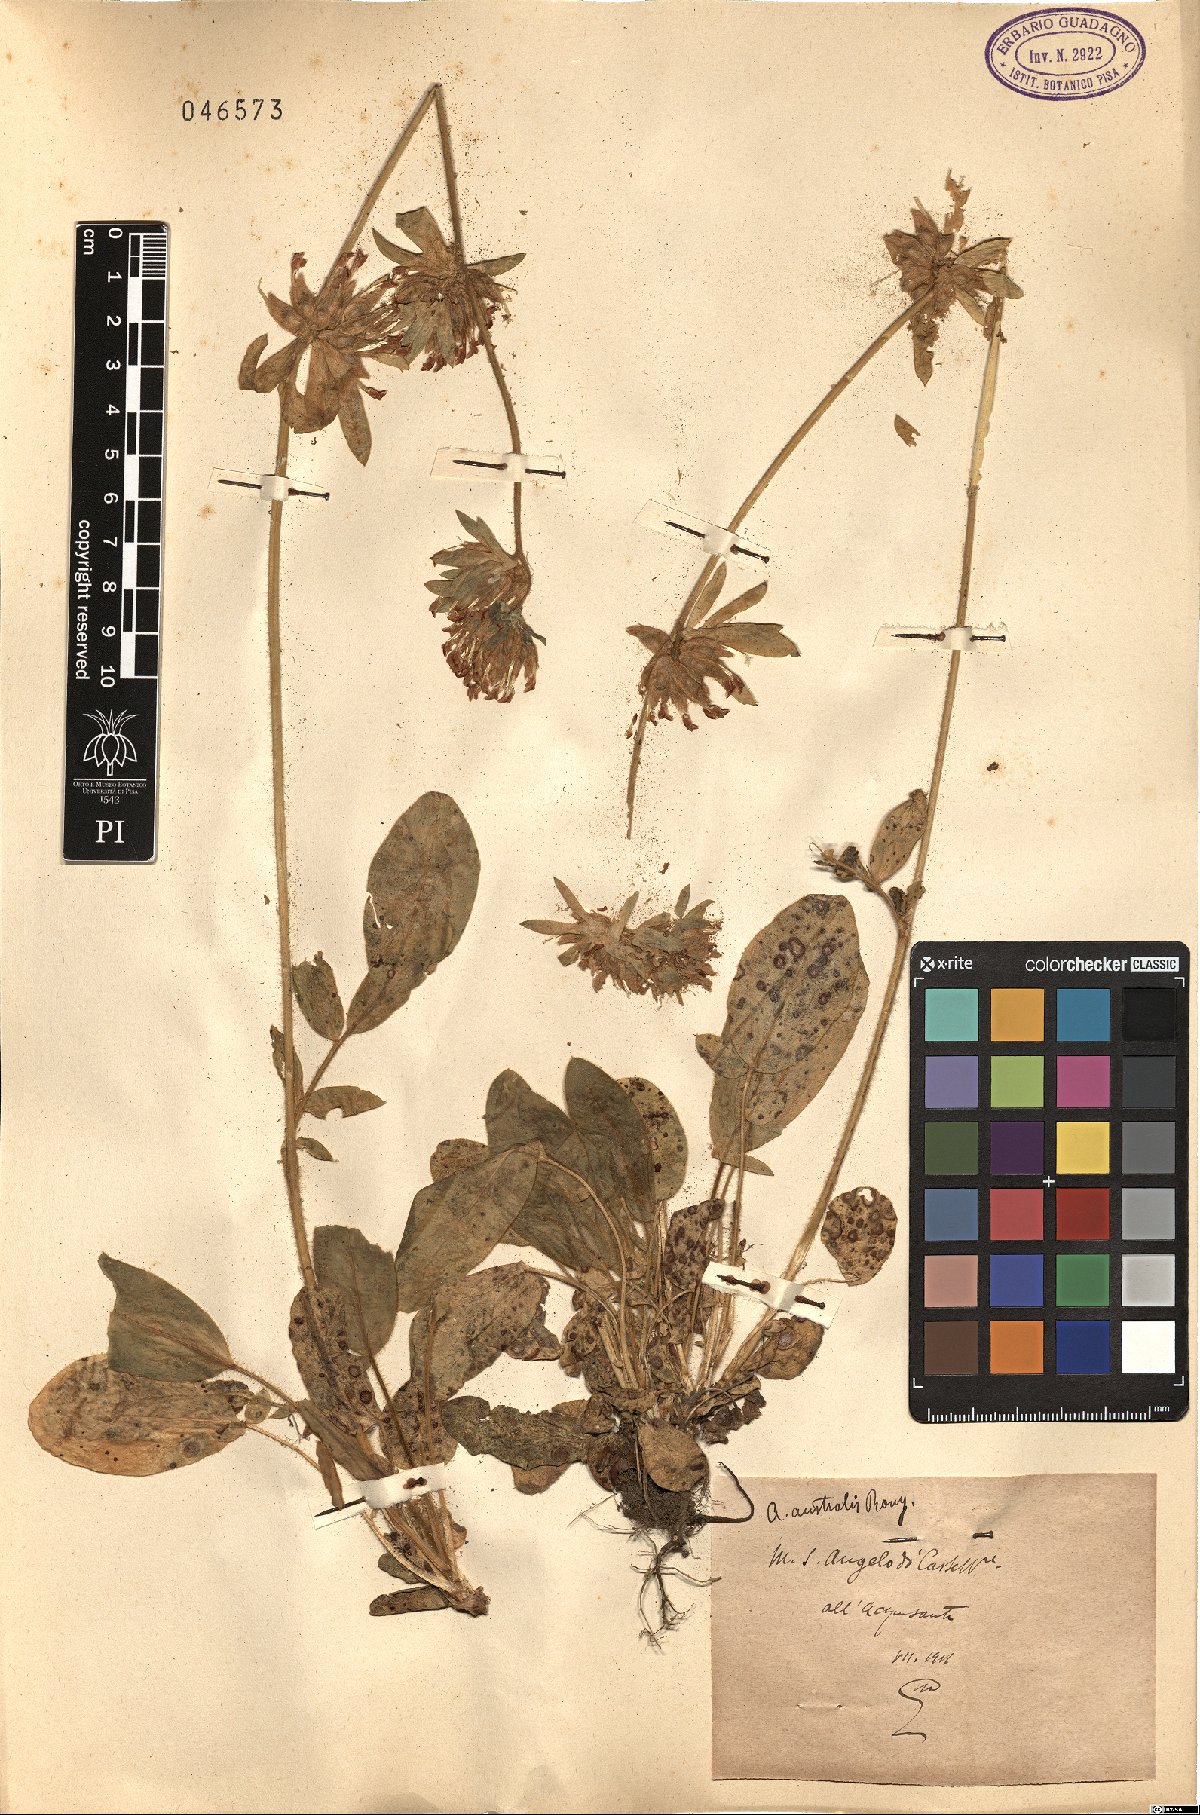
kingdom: Plantae
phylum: Tracheophyta
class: Magnoliopsida
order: Fabales
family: Fabaceae
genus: Anthyllis
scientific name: Anthyllis
